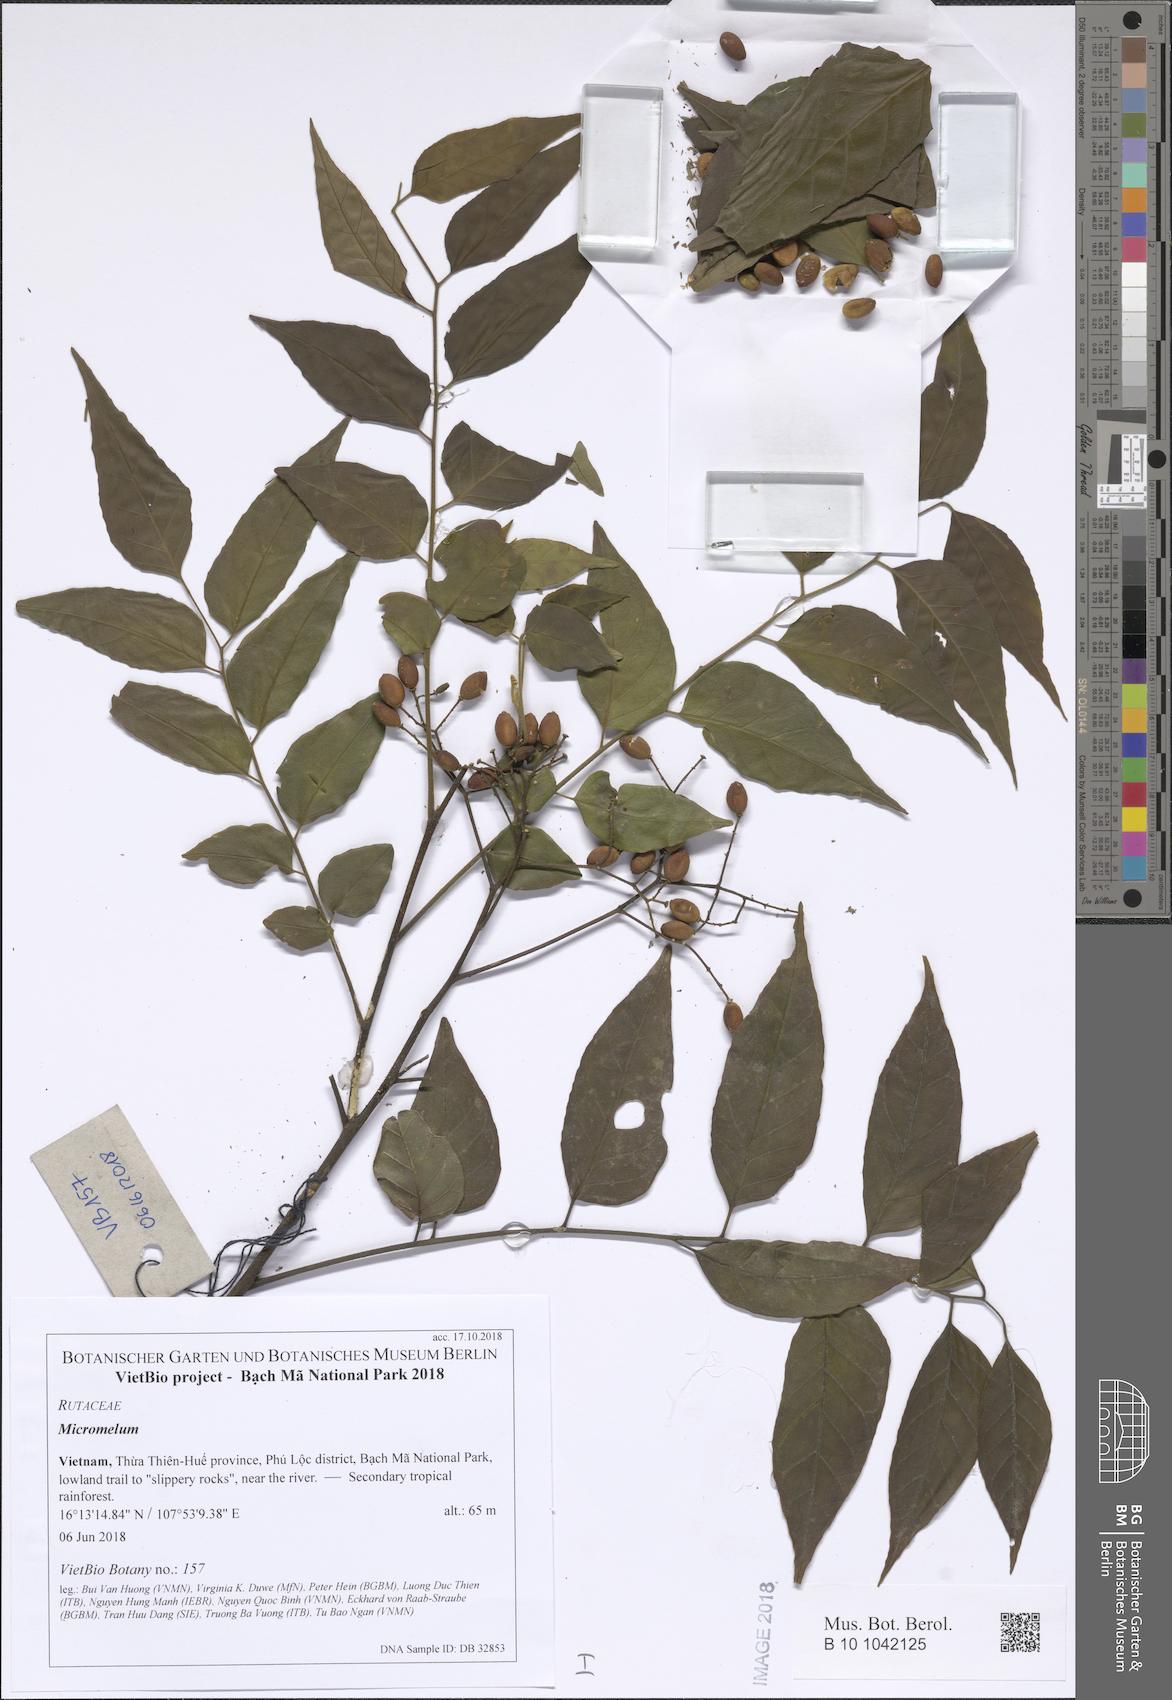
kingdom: Plantae
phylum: Tracheophyta
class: Magnoliopsida
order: Sapindales
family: Rutaceae
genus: Micromelum
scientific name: Micromelum
